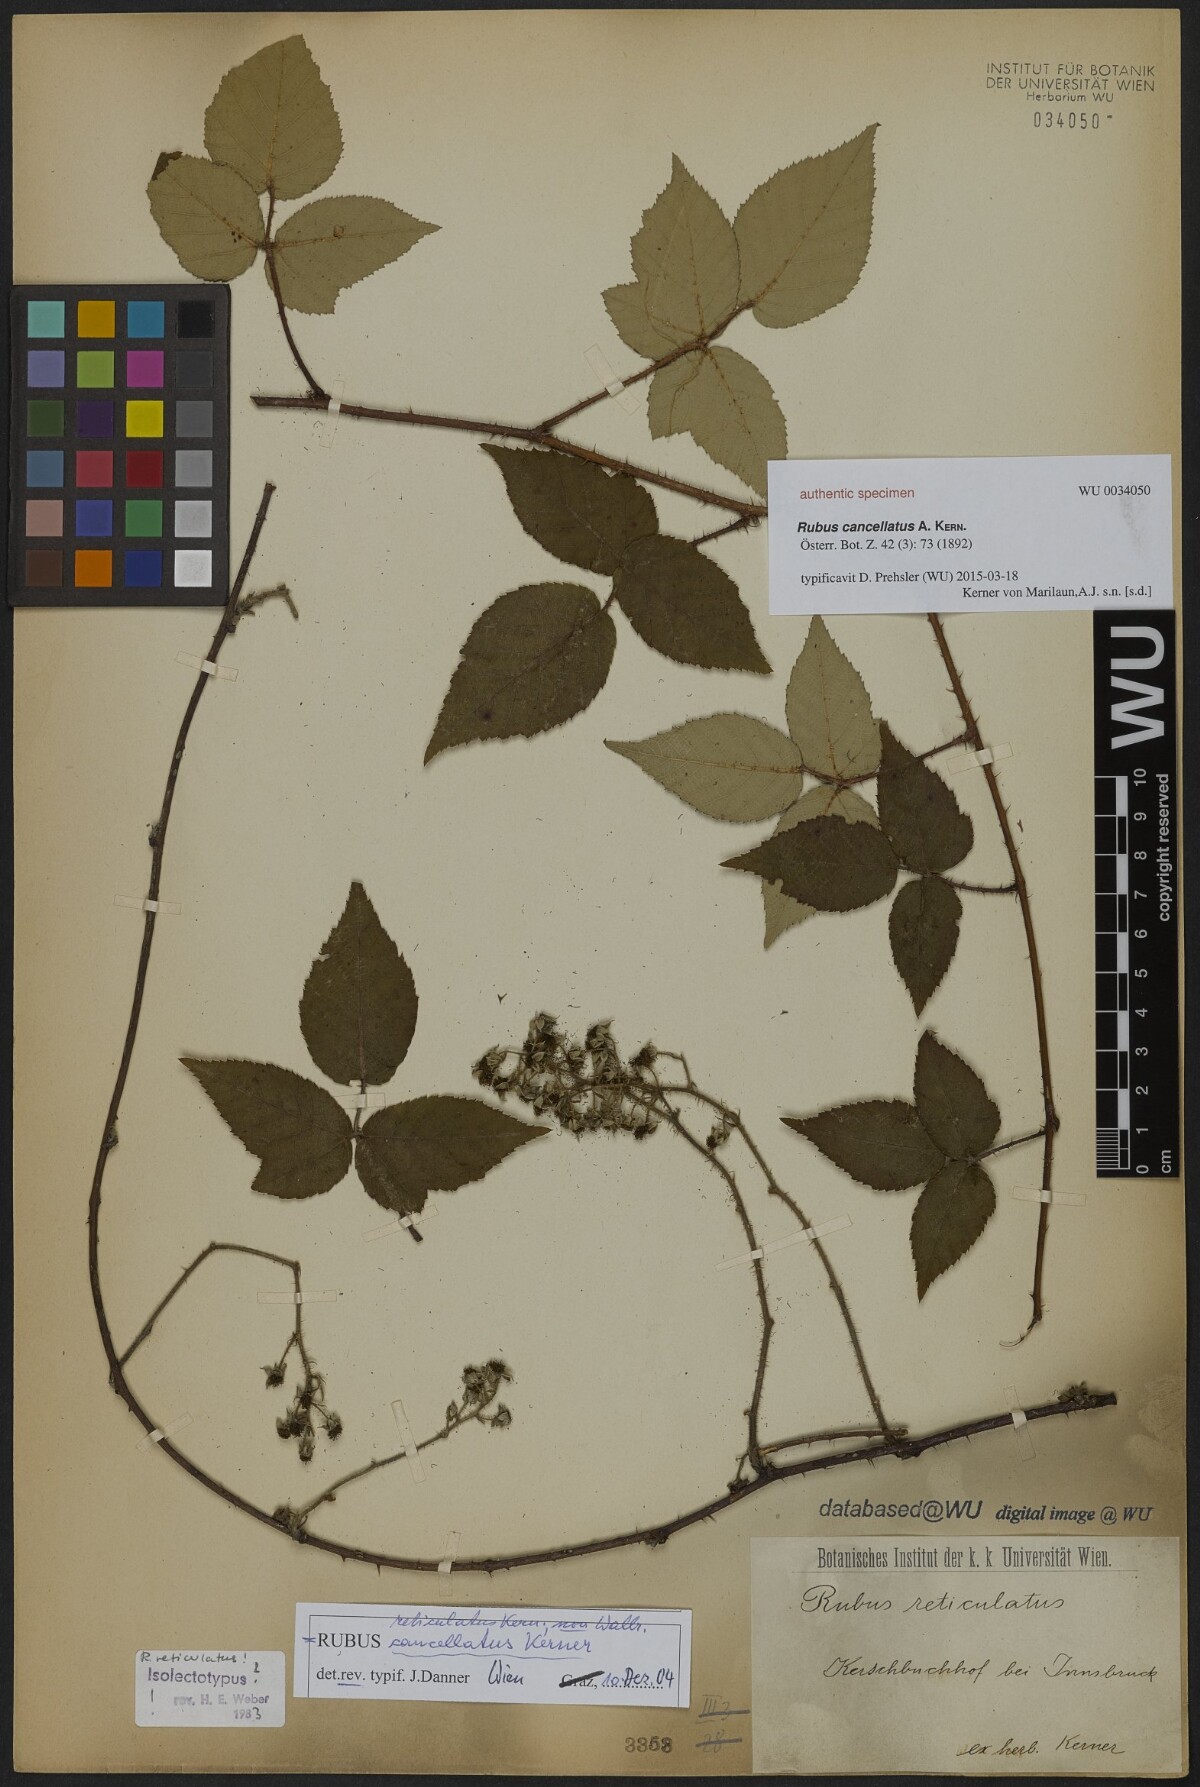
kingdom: Plantae
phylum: Tracheophyta
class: Magnoliopsida
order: Rosales
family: Rosaceae
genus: Rubus
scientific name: Rubus reticulatus
